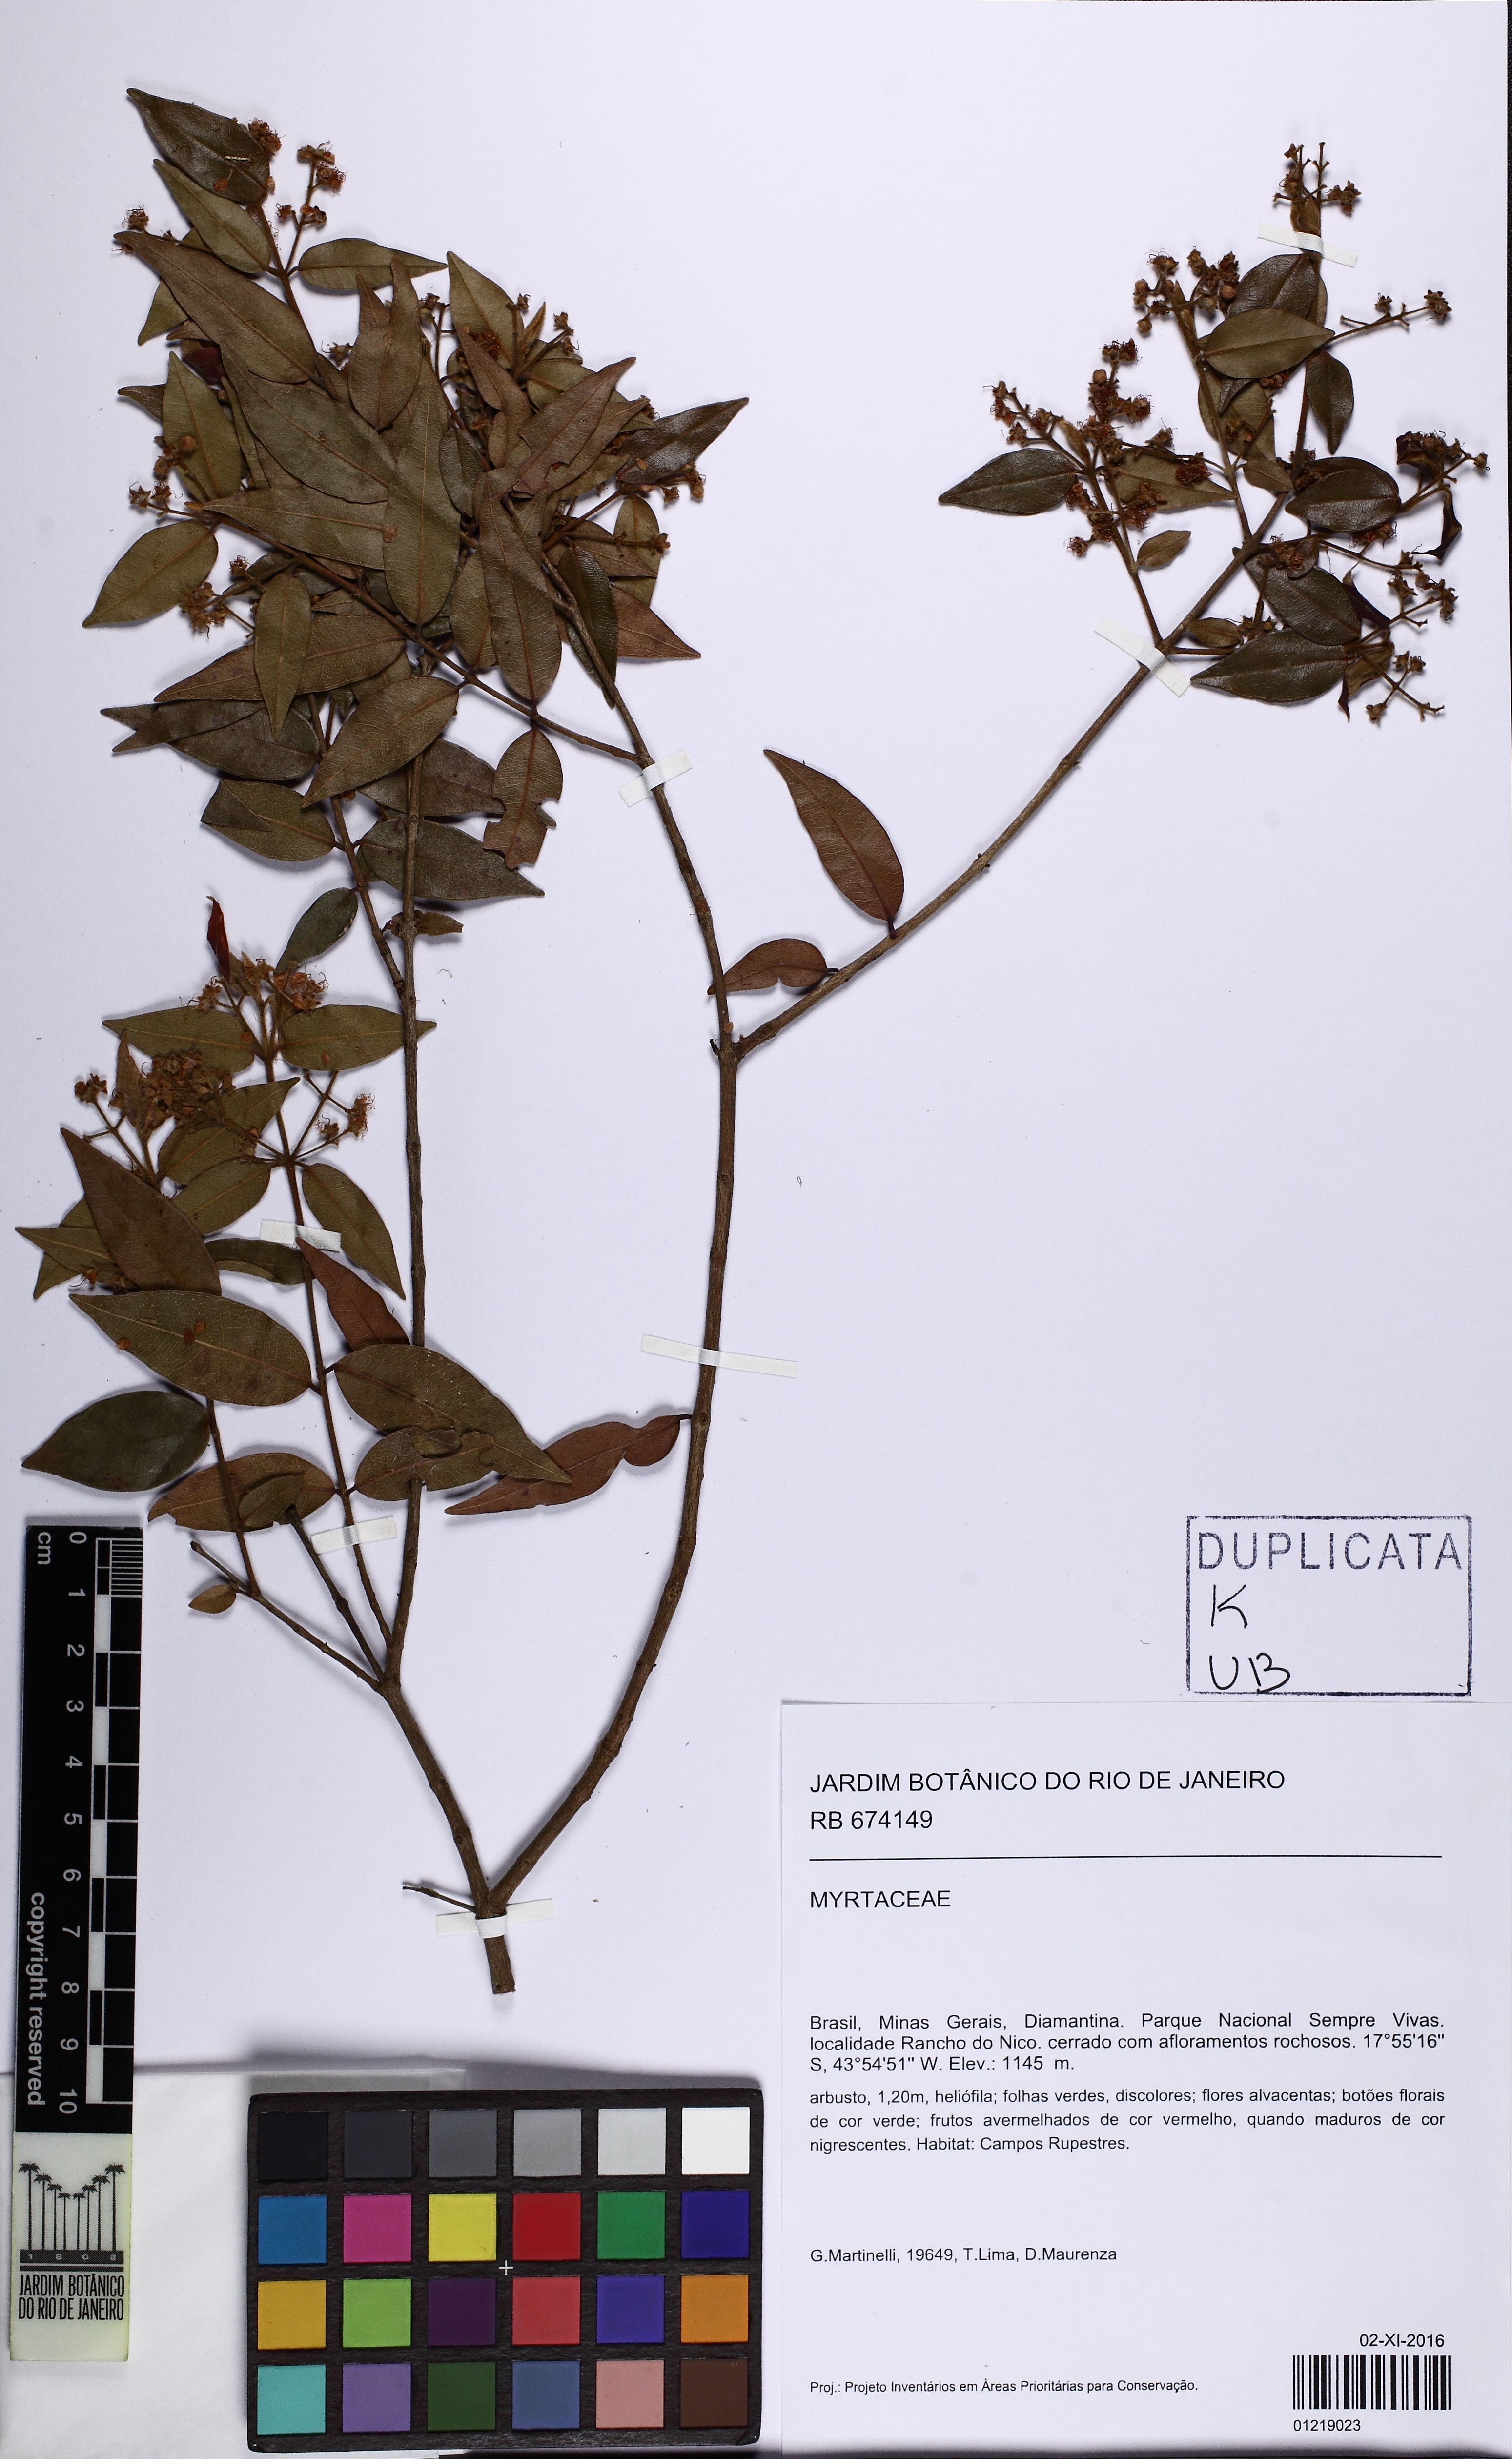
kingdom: Plantae
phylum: Tracheophyta
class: Magnoliopsida
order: Myrtales
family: Myrtaceae
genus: Myrcia
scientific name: Myrcia splendens
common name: Surinam cherry
